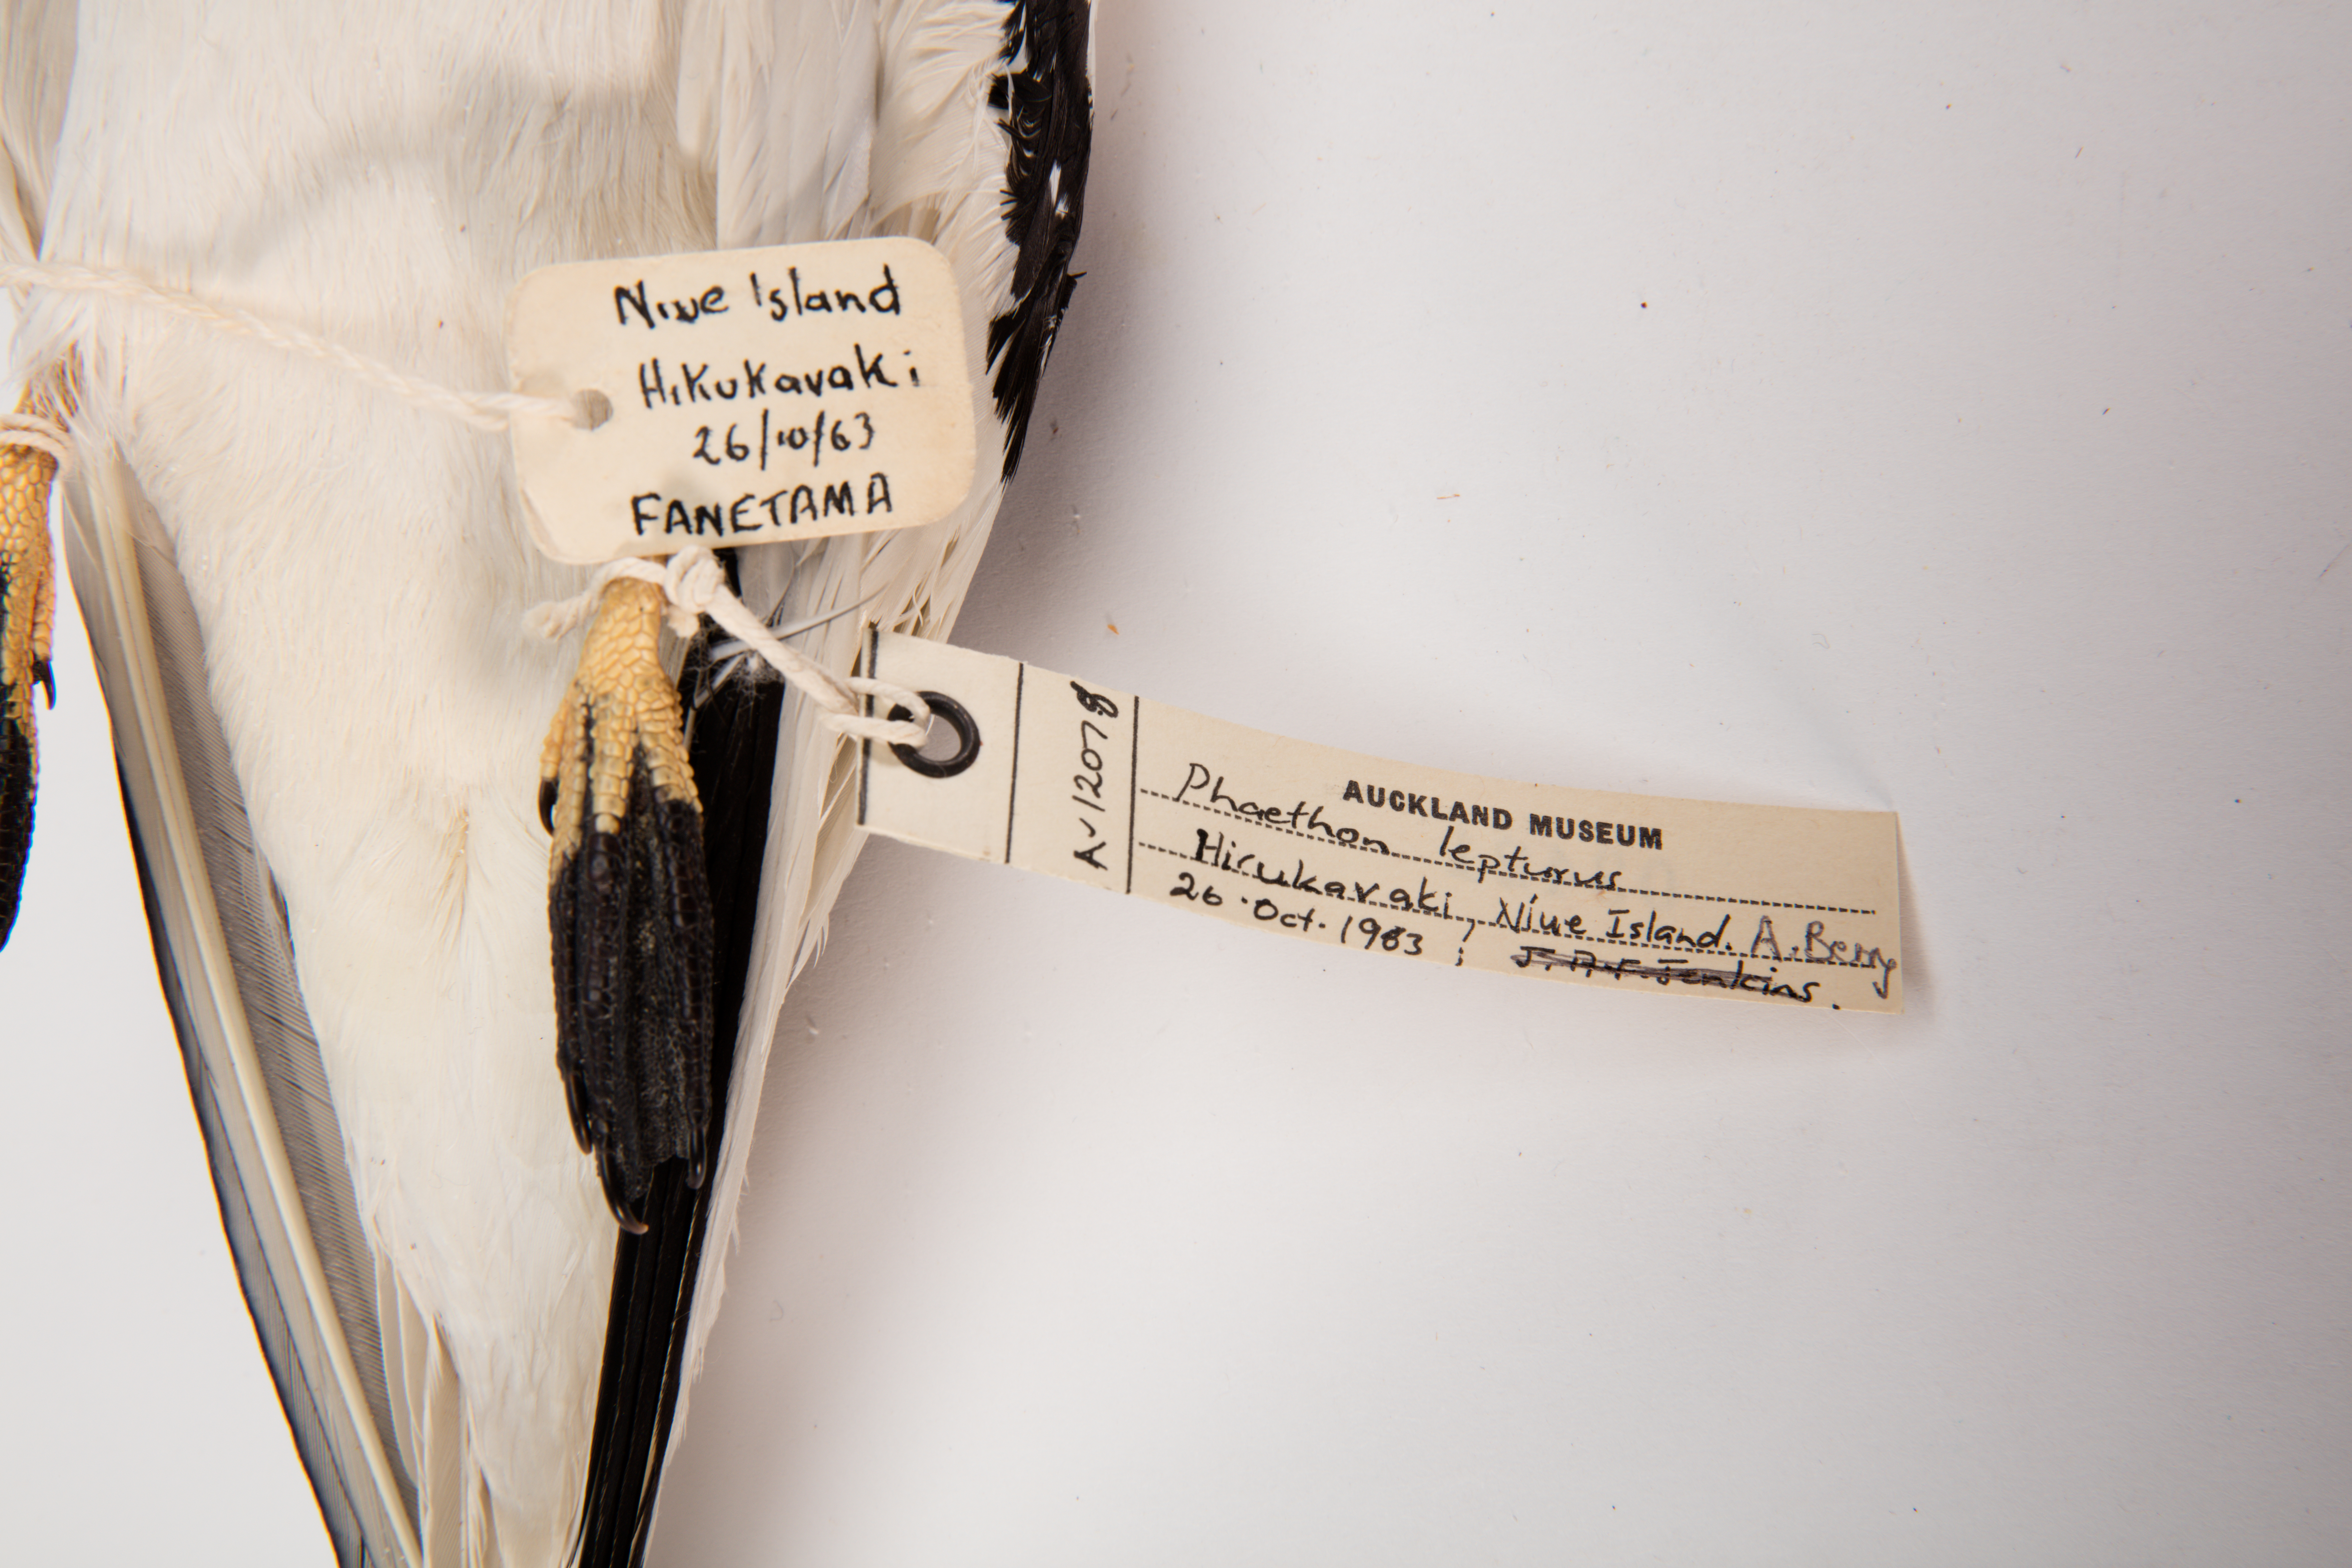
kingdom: Animalia
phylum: Chordata
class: Aves
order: Phaethontiformes
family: Phaethontidae
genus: Phaethon
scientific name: Phaethon lepturus
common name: White-tailed tropicbird
